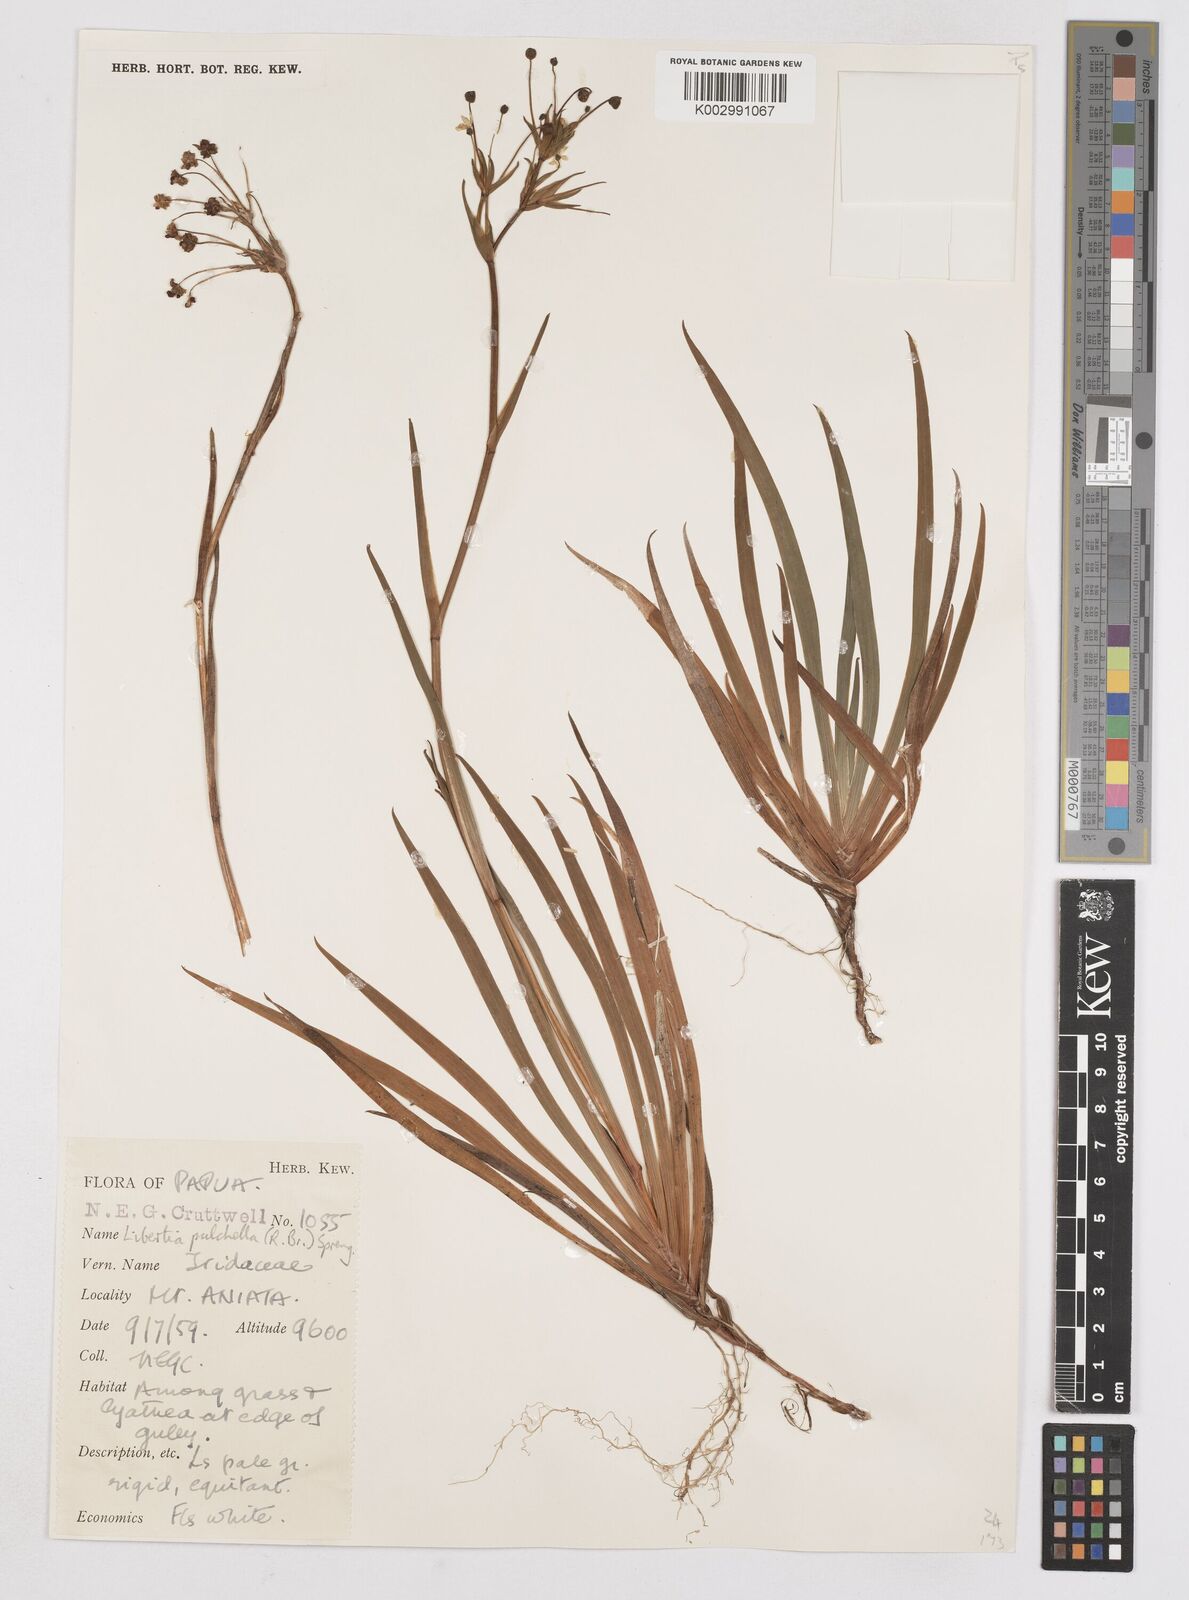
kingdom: Plantae
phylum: Tracheophyta
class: Liliopsida
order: Asparagales
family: Iridaceae
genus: Libertia
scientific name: Libertia pulchella
